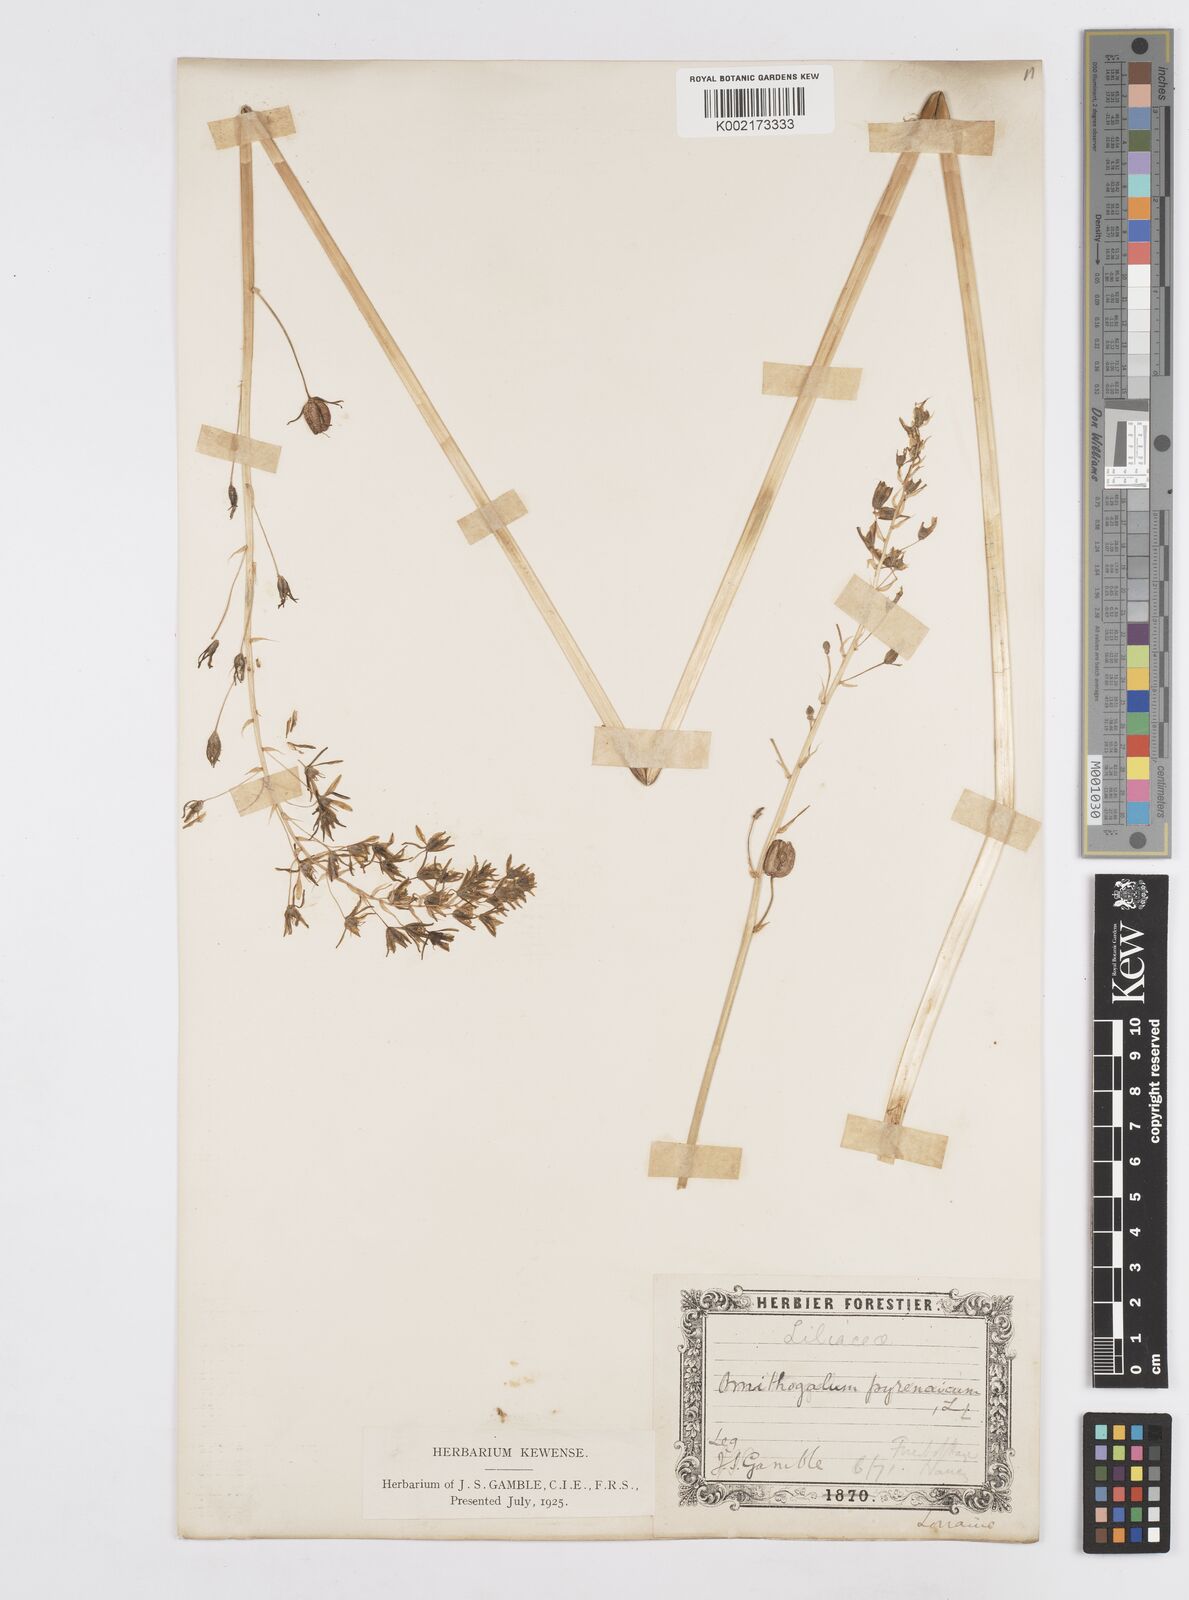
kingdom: Plantae
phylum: Tracheophyta
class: Liliopsida
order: Asparagales
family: Asparagaceae
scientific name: Asparagaceae
